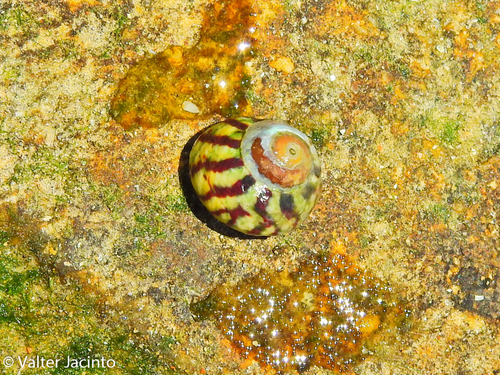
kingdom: Animalia
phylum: Mollusca
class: Gastropoda
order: Trochida
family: Trochidae
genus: Steromphala
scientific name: Steromphala umbilicalis
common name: Flat top shell
